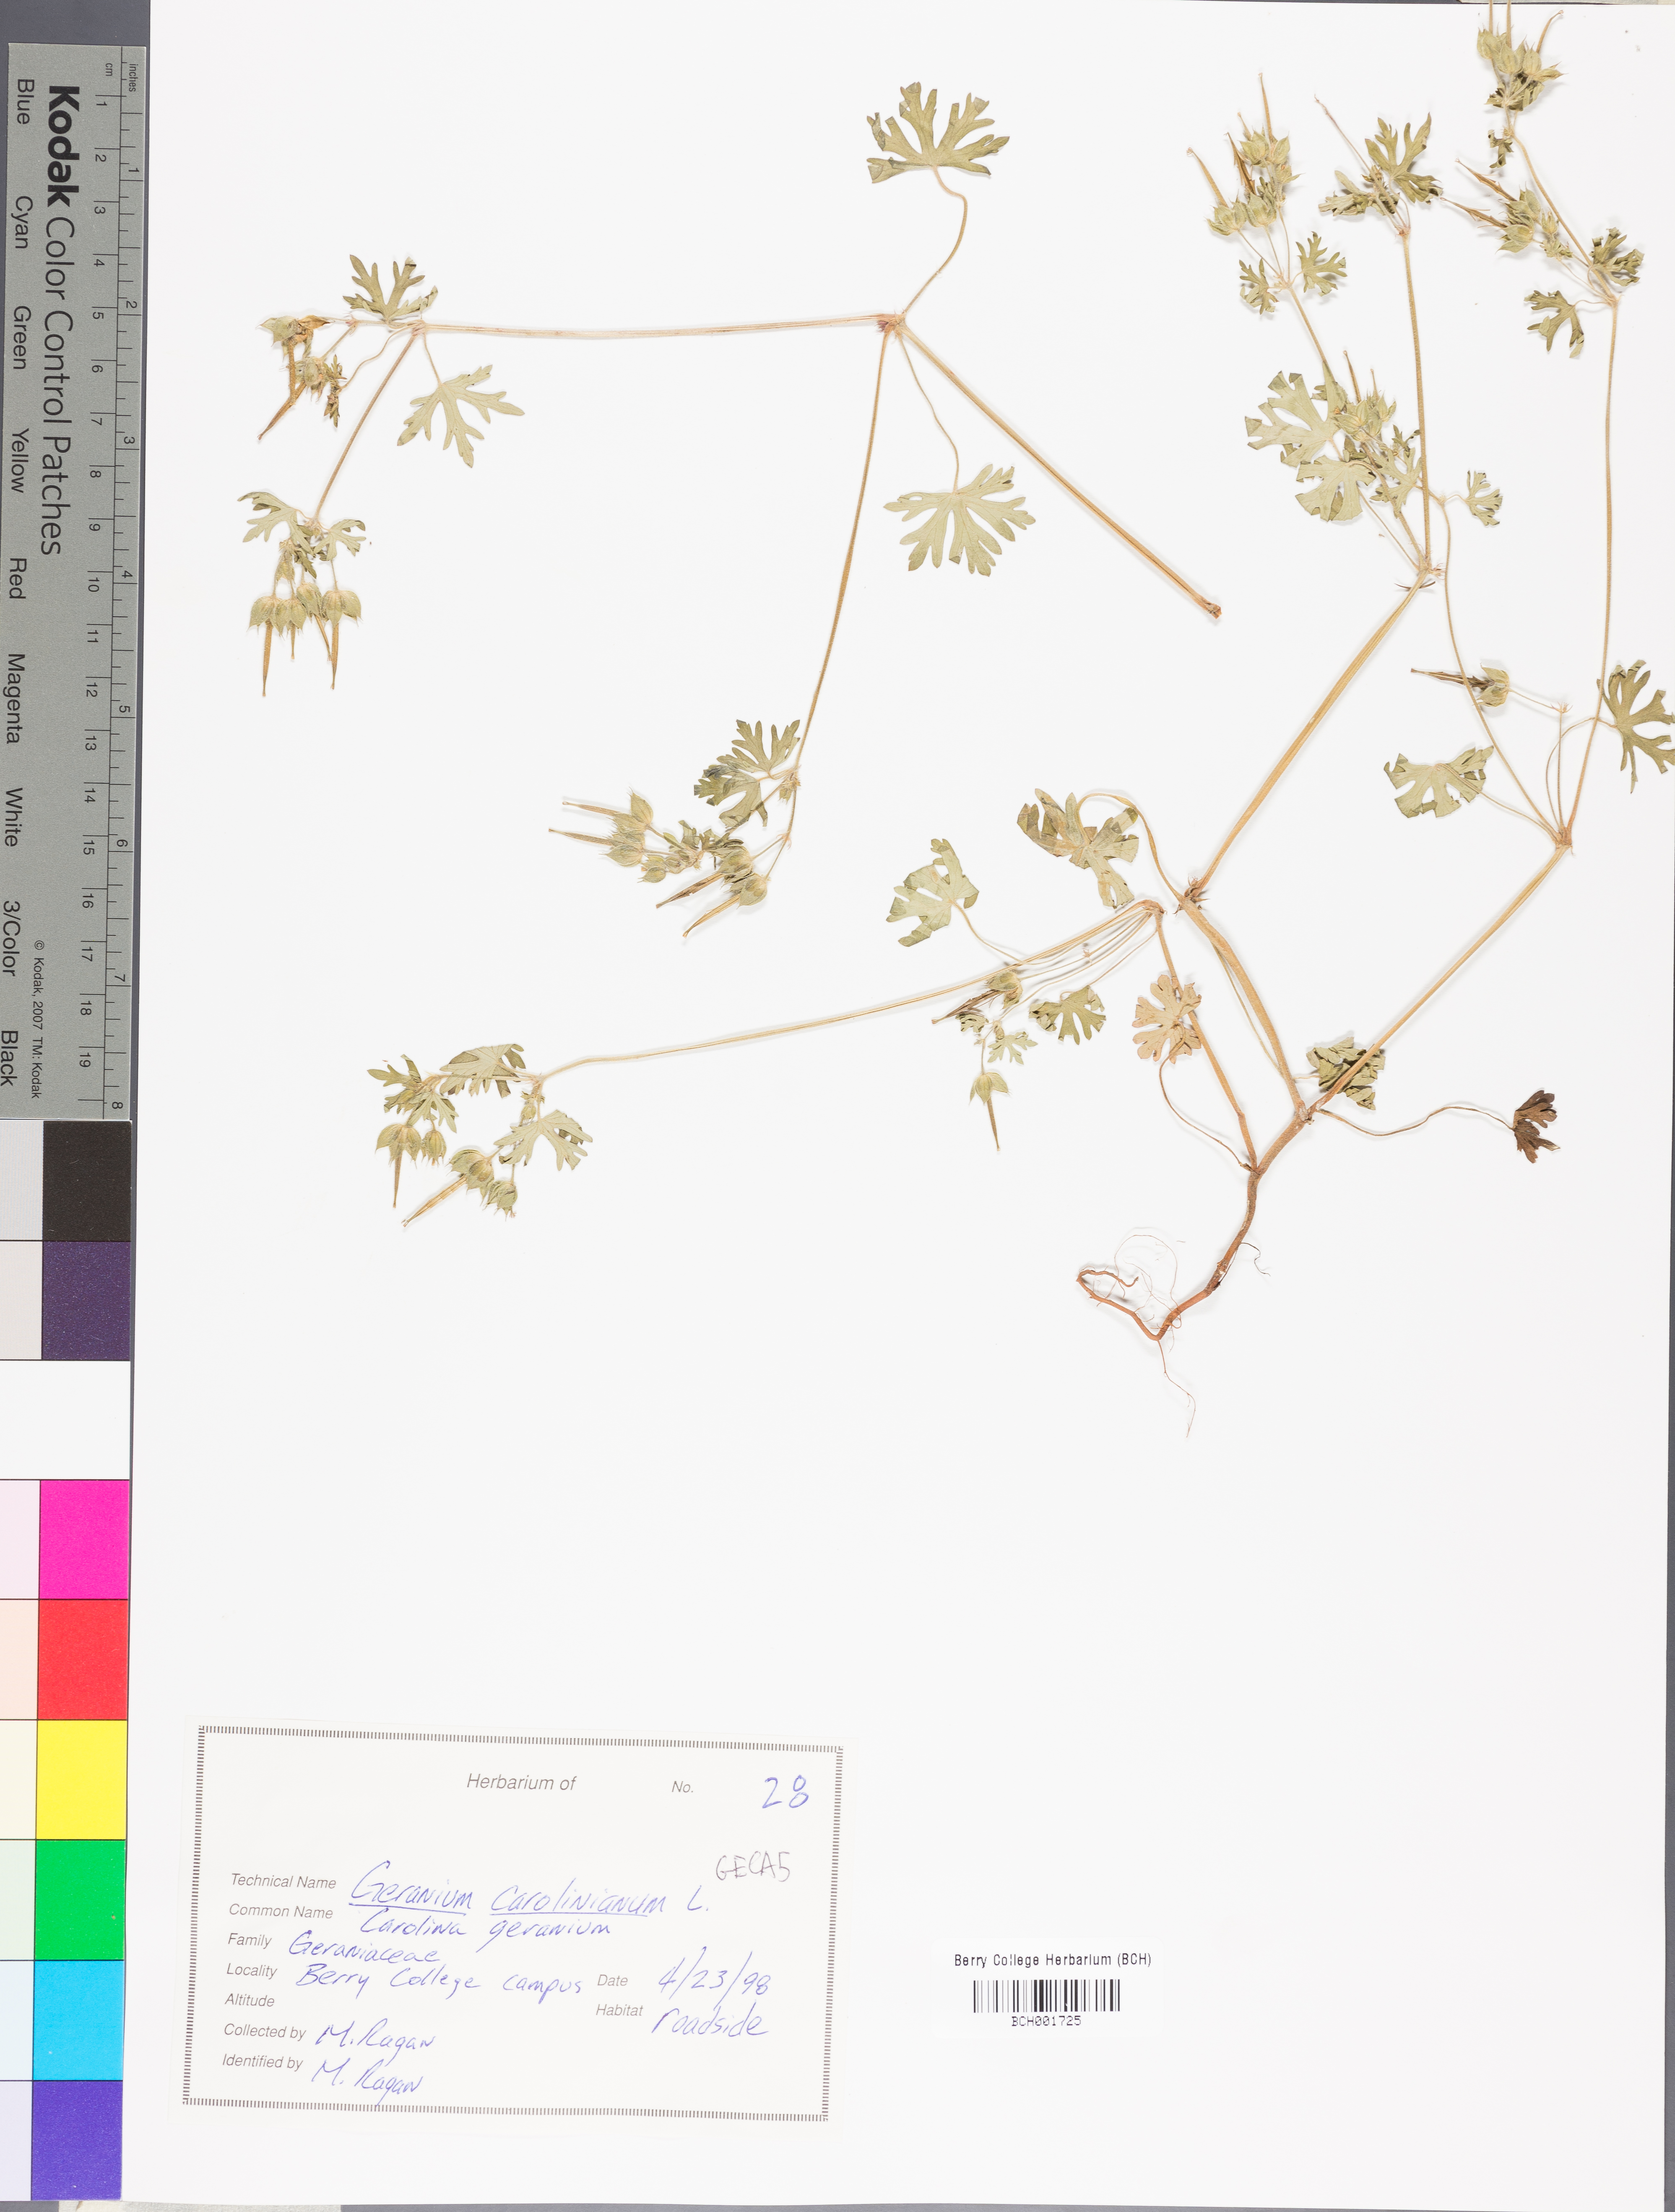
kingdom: Plantae
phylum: Tracheophyta
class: Magnoliopsida
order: Geraniales
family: Geraniaceae
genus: Geranium
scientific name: Geranium carolinianum
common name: Carolina crane's-bill
